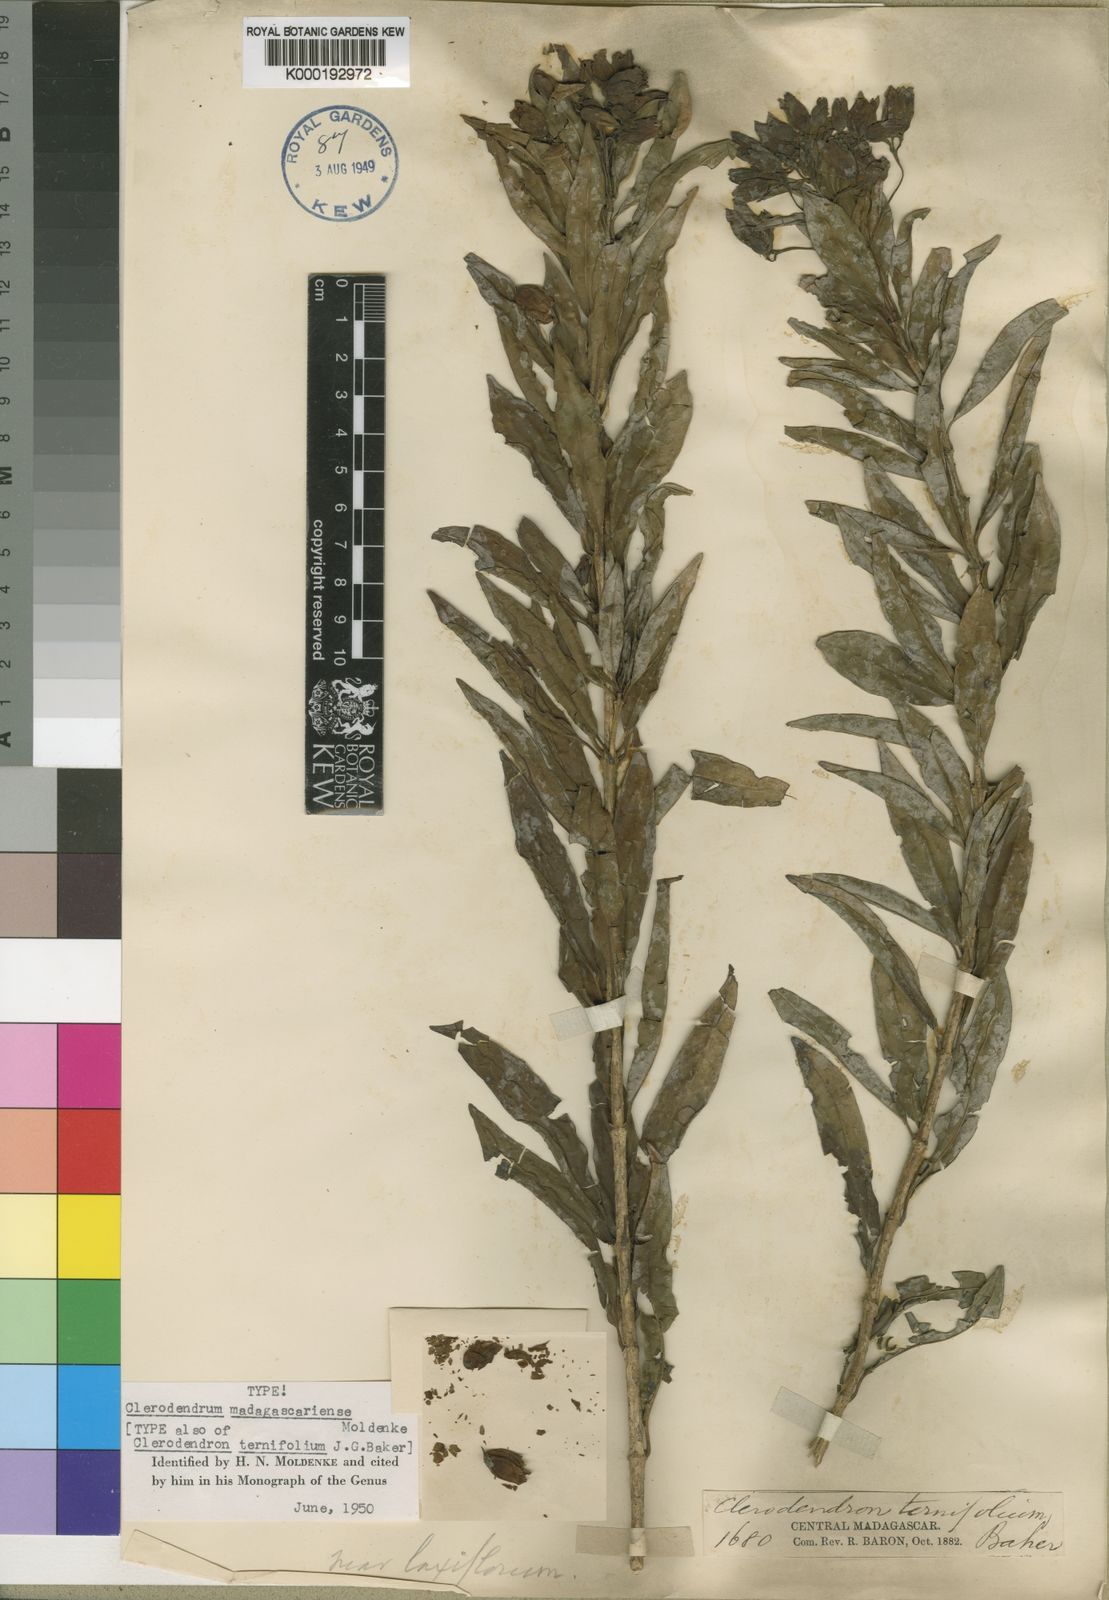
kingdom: Plantae
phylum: Tracheophyta
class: Magnoliopsida
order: Lamiales
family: Lamiaceae
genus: Clerodendrum
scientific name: Clerodendrum madagascariense
